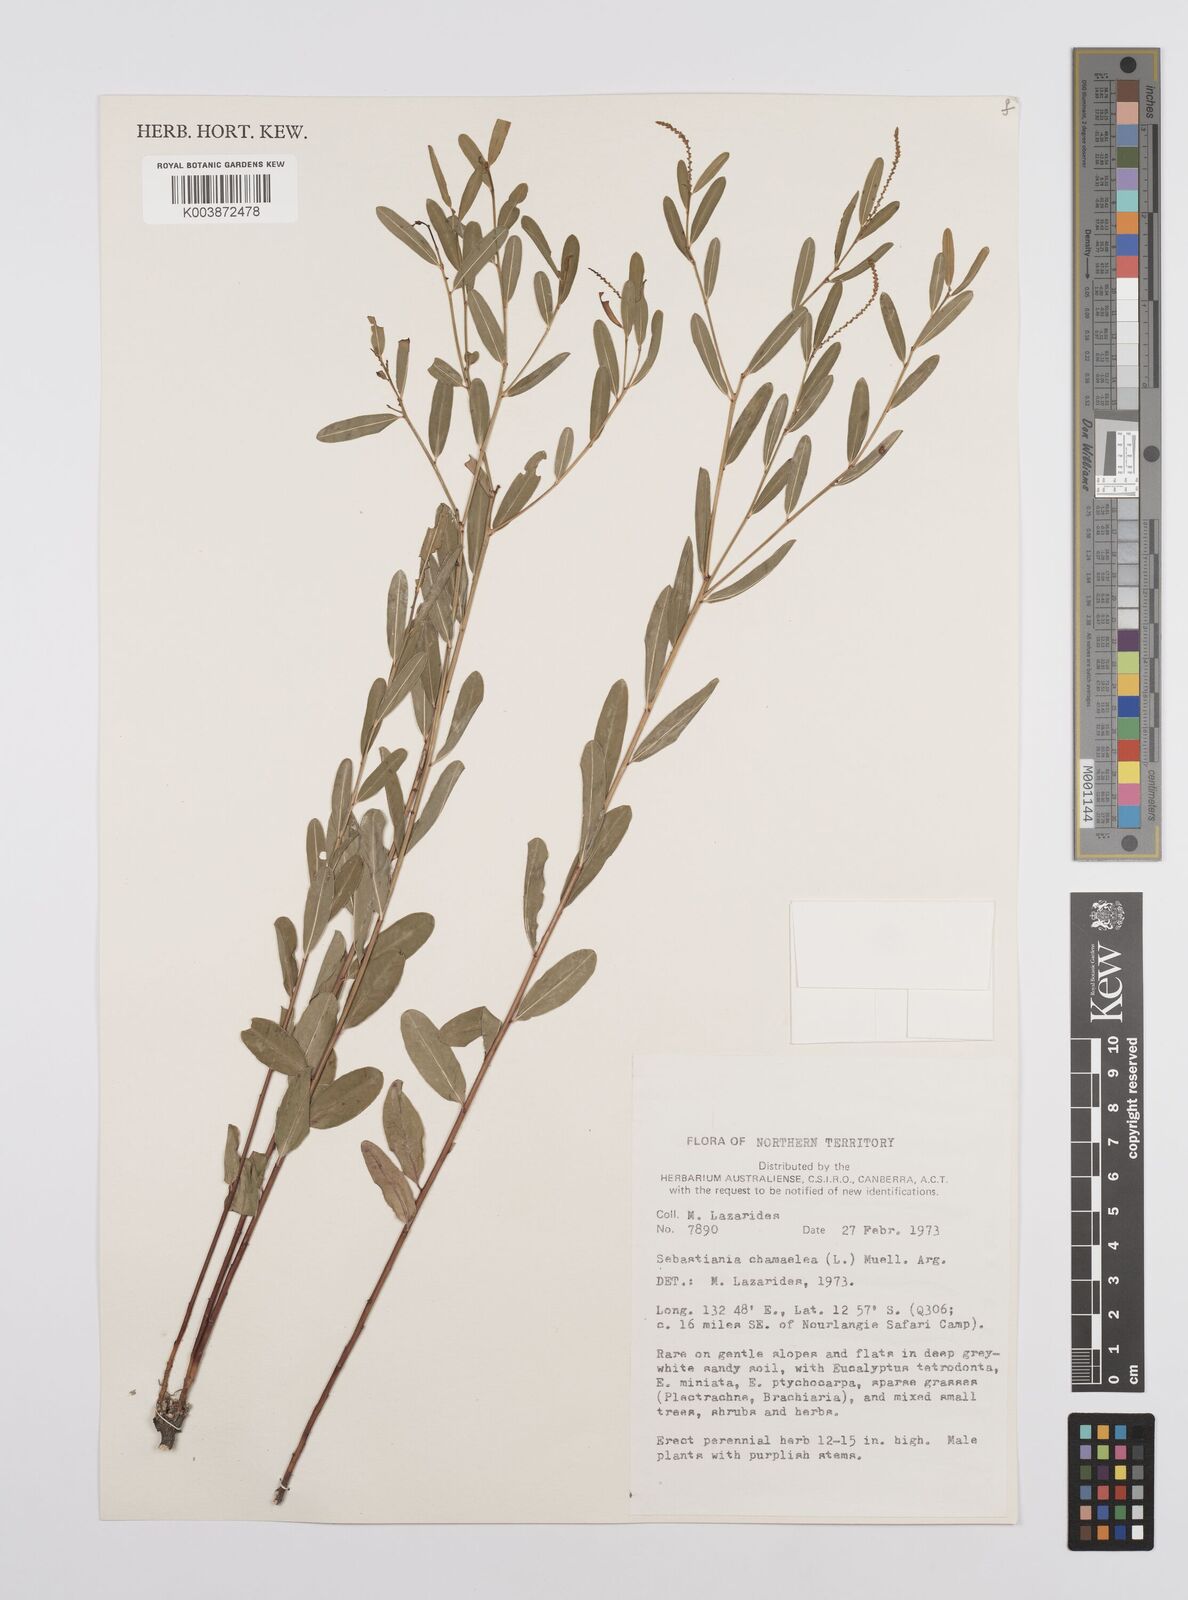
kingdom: Plantae
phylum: Tracheophyta
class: Magnoliopsida
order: Malpighiales
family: Euphorbiaceae
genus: Microstachys
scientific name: Microstachys chamaelea
